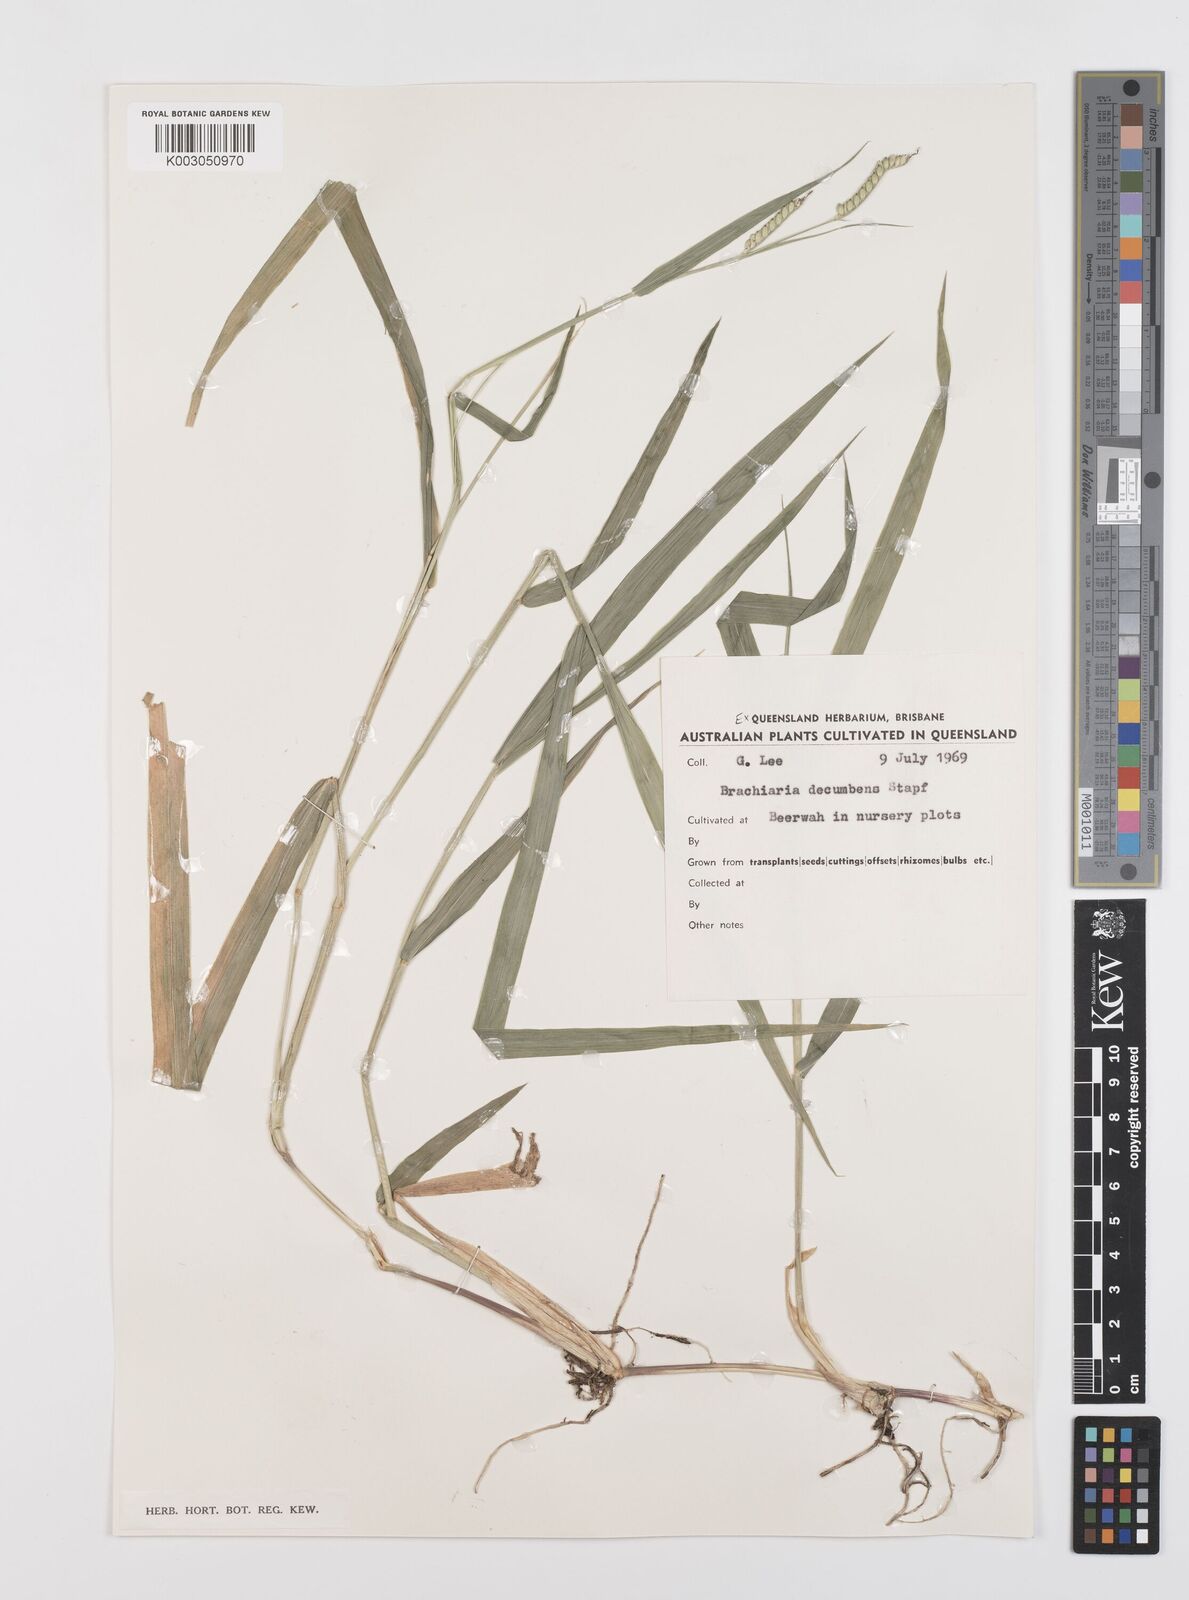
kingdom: Plantae
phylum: Tracheophyta
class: Liliopsida
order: Poales
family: Poaceae
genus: Urochloa
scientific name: Urochloa eminii
